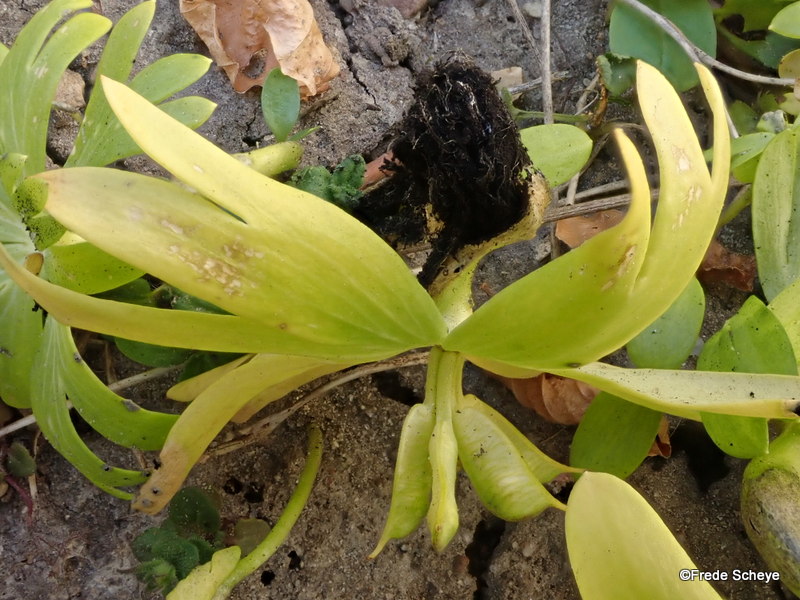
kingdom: Fungi
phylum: Basidiomycota
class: Ustilaginomycetes
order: Urocystidales
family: Urocystidaceae
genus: Urocystis
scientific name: Urocystis eranthidis
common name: erantis-brand
